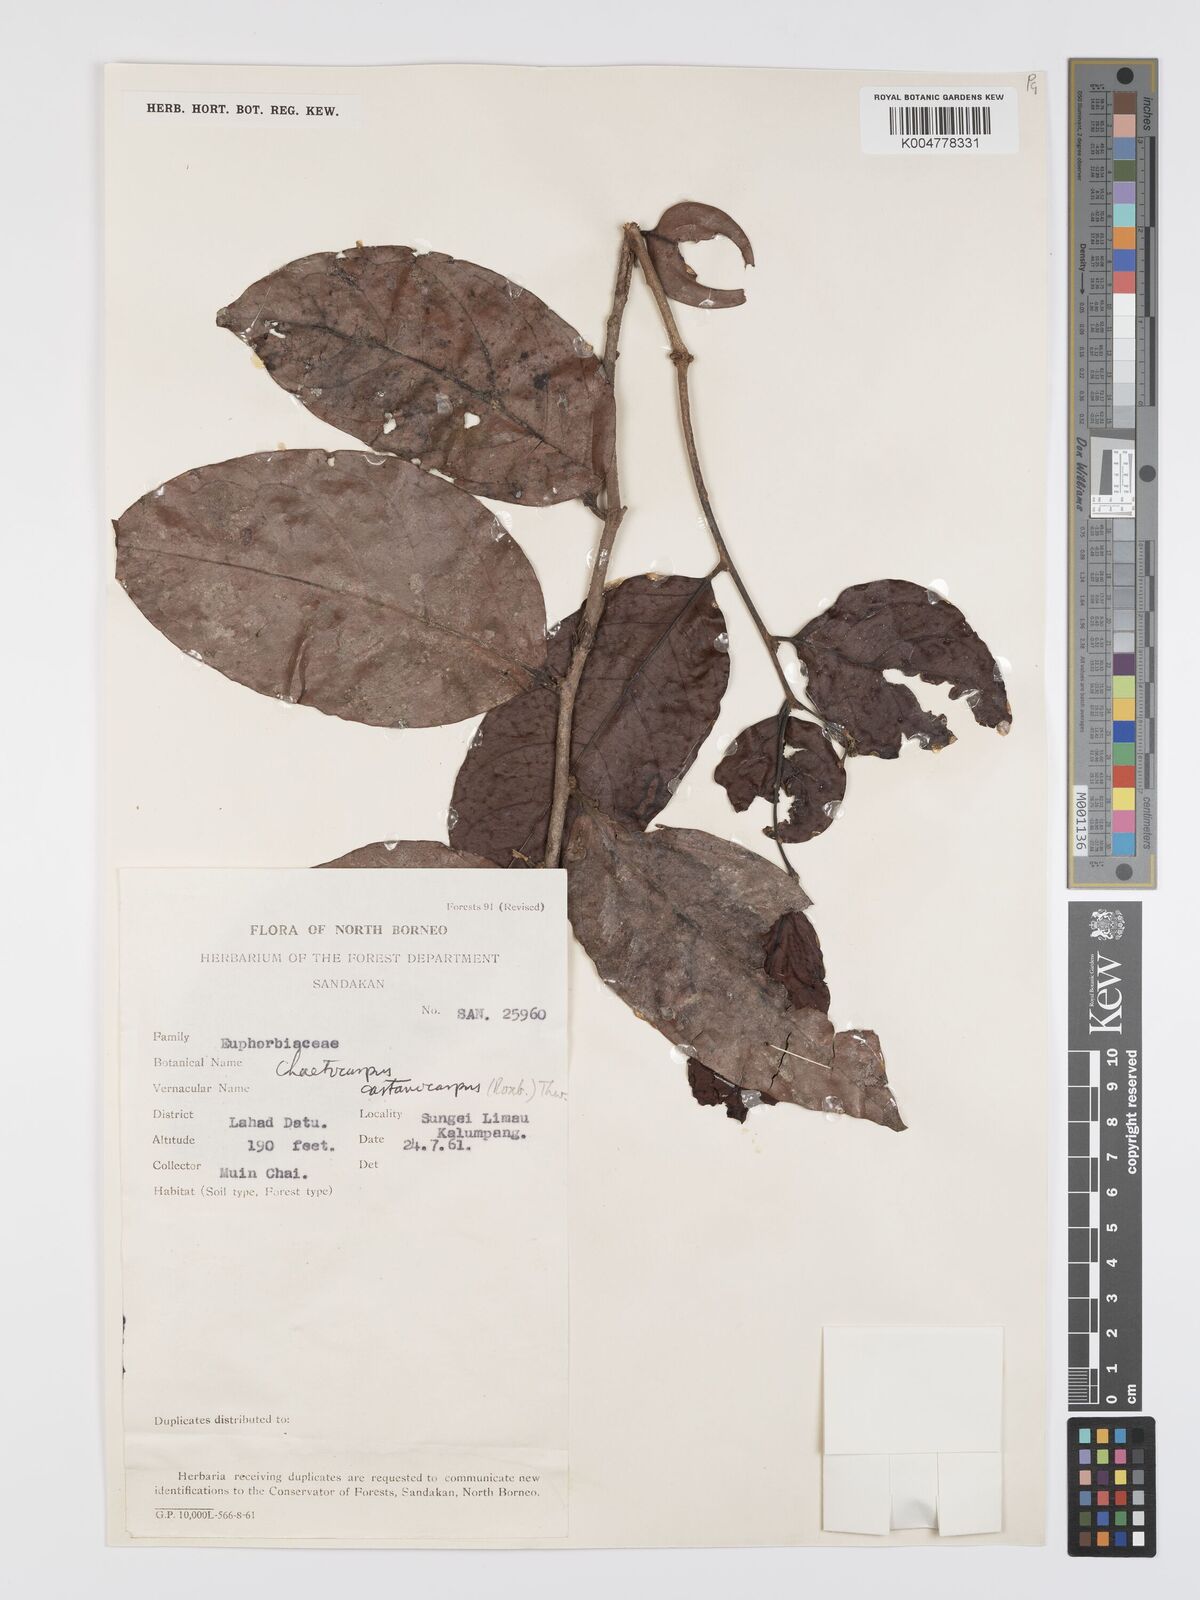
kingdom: Plantae
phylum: Tracheophyta
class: Magnoliopsida
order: Malpighiales
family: Peraceae
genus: Chaetocarpus
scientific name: Chaetocarpus castanocarpus
